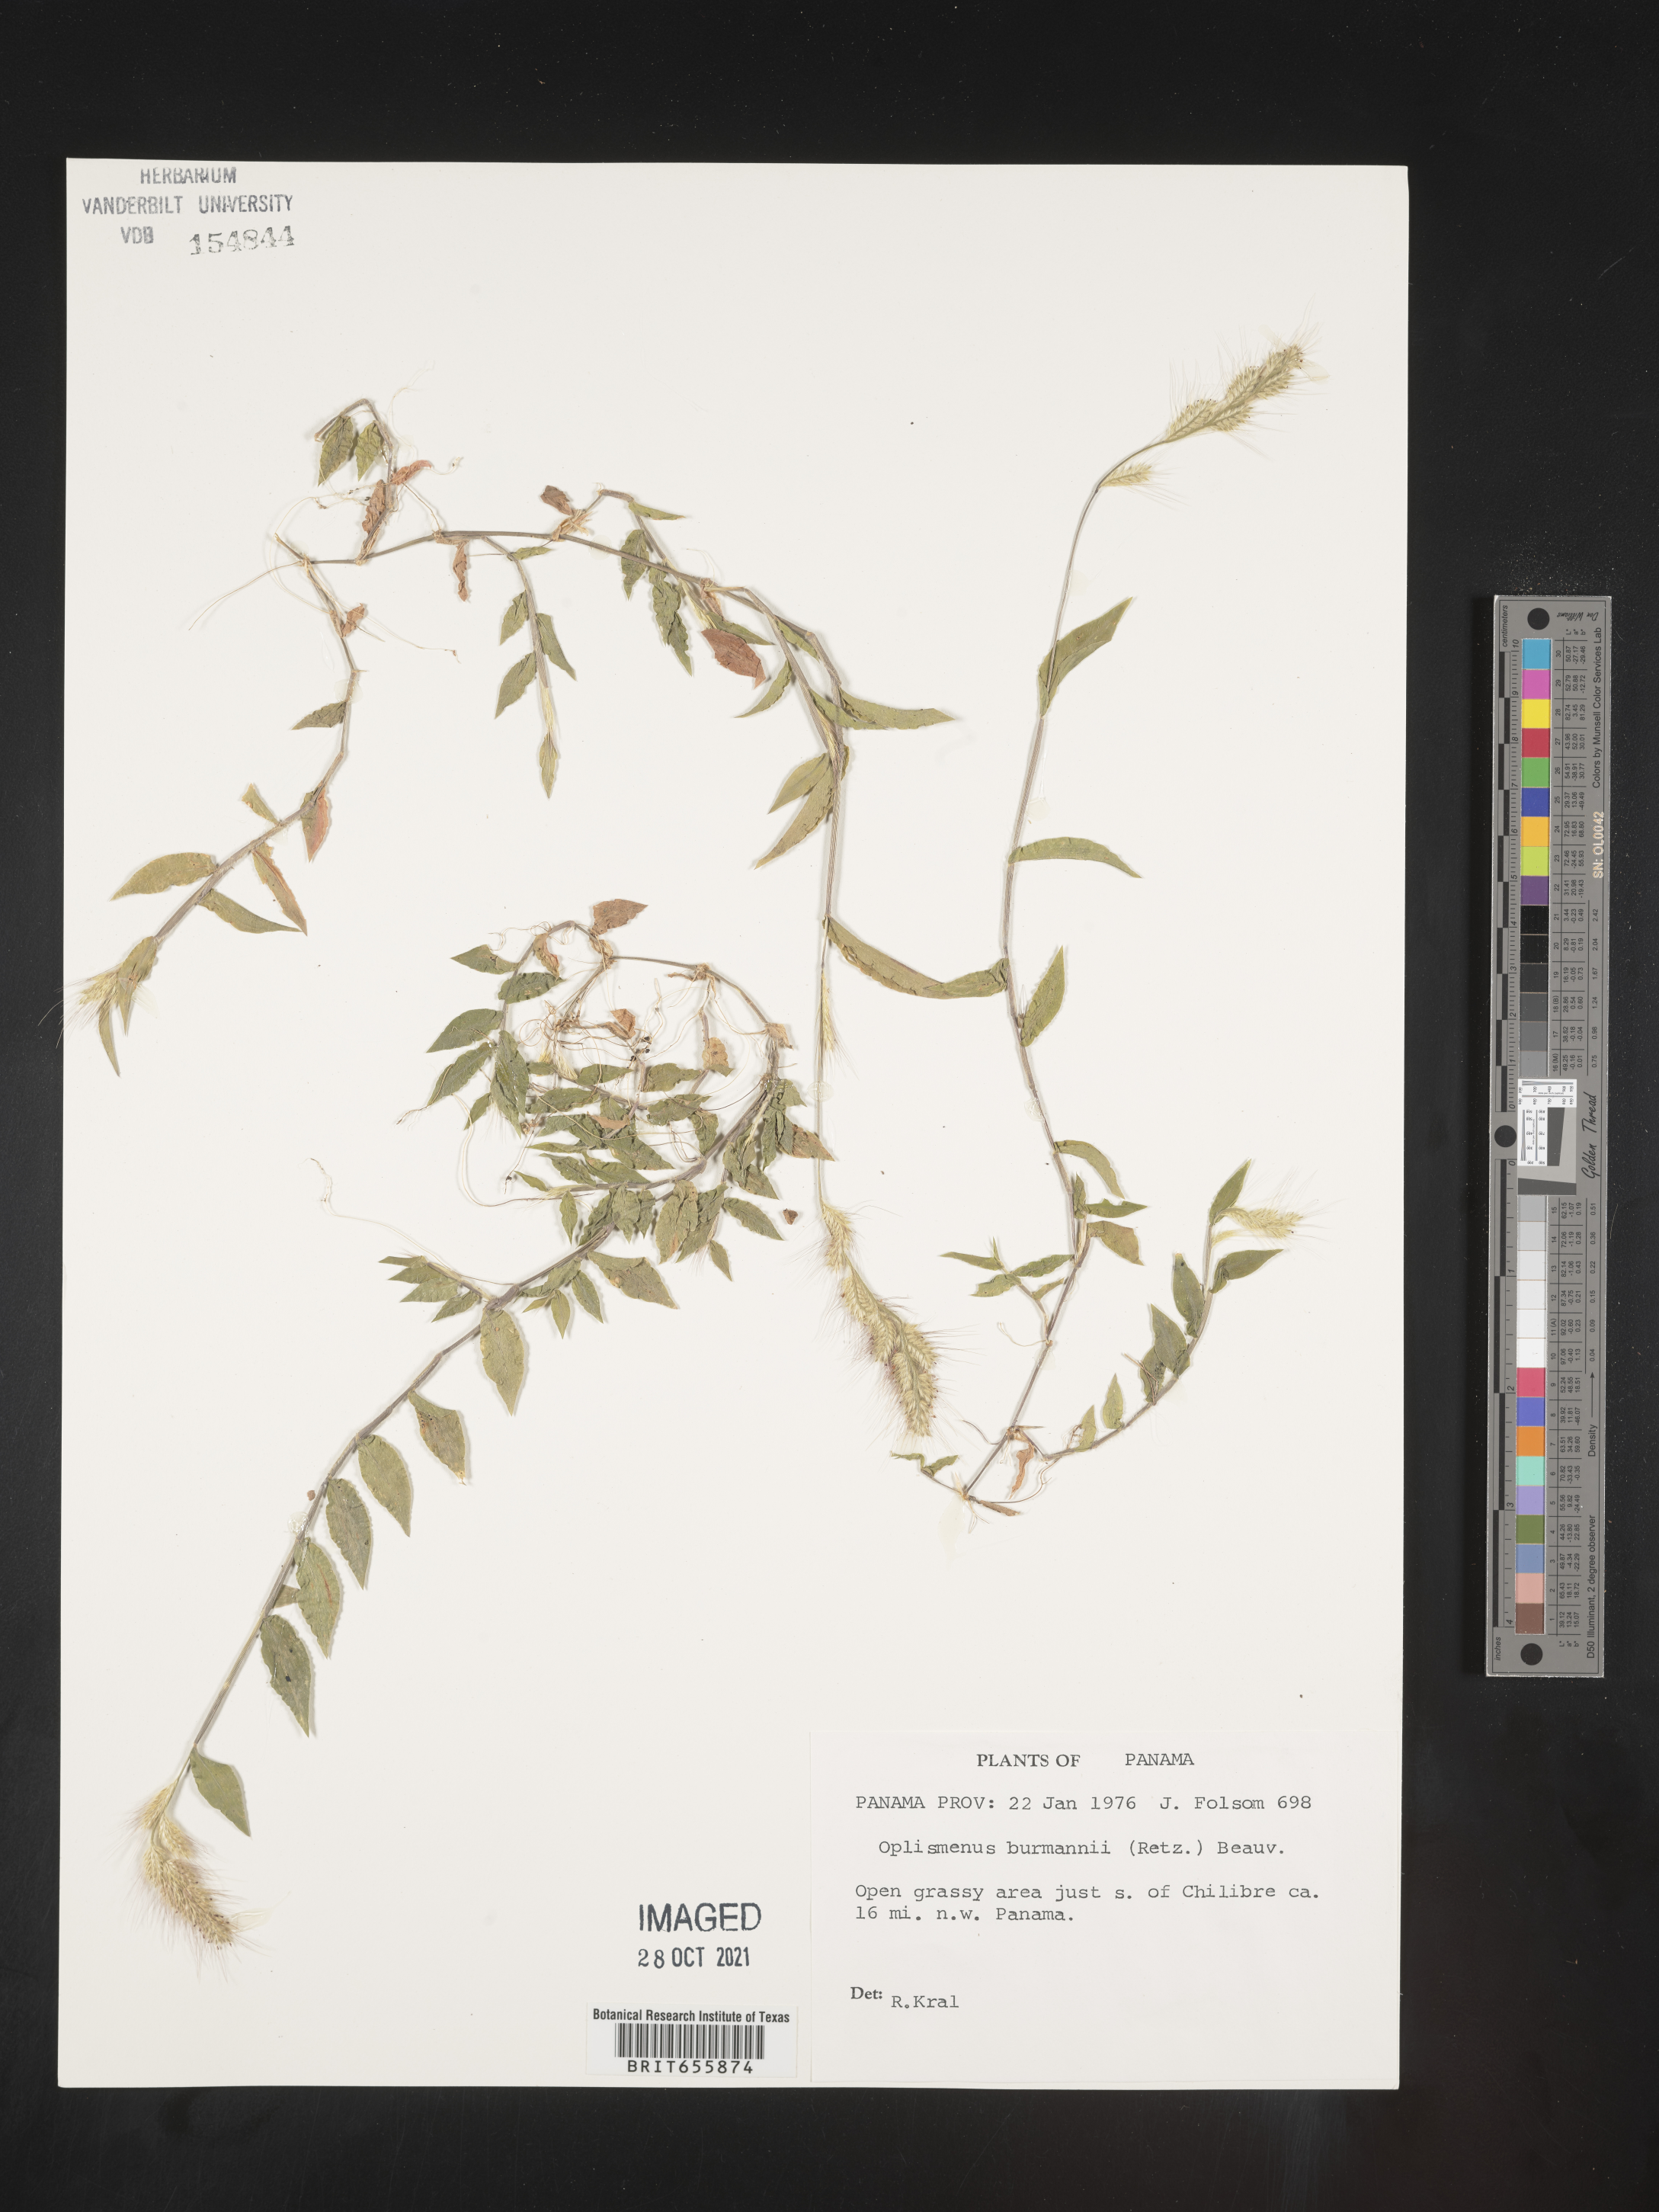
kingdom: Plantae
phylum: Tracheophyta
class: Liliopsida
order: Poales
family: Poaceae
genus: Oplismenus
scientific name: Oplismenus
